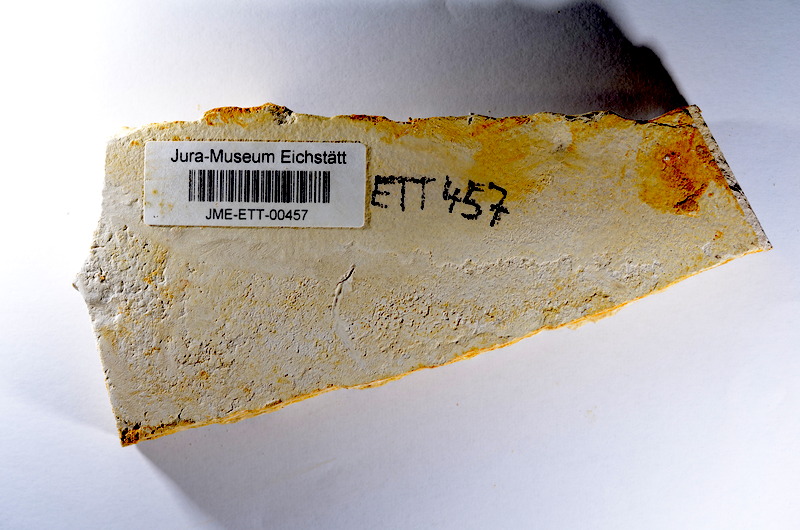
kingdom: Animalia
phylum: Chordata
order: Salmoniformes
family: Orthogonikleithridae
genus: Orthogonikleithrus
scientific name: Orthogonikleithrus hoelli
